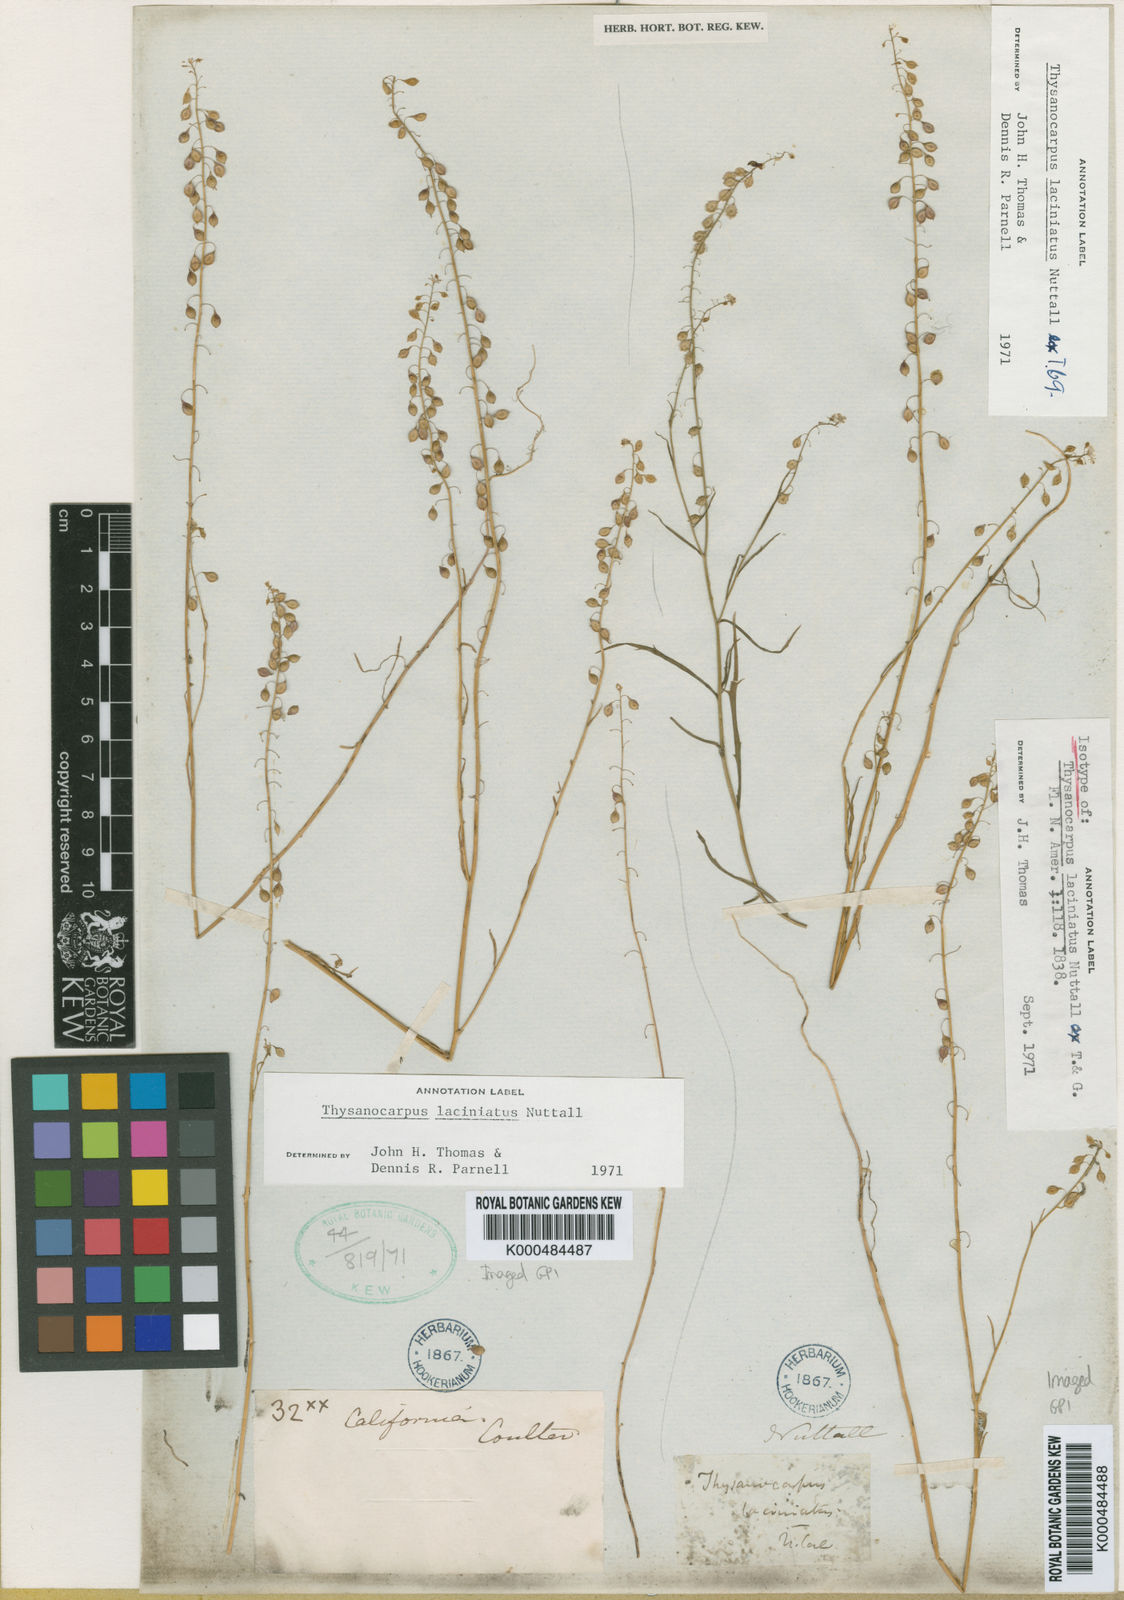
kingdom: Plantae
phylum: Tracheophyta
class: Magnoliopsida
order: Brassicales
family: Brassicaceae
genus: Thysanocarpus
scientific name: Thysanocarpus laciniatus
